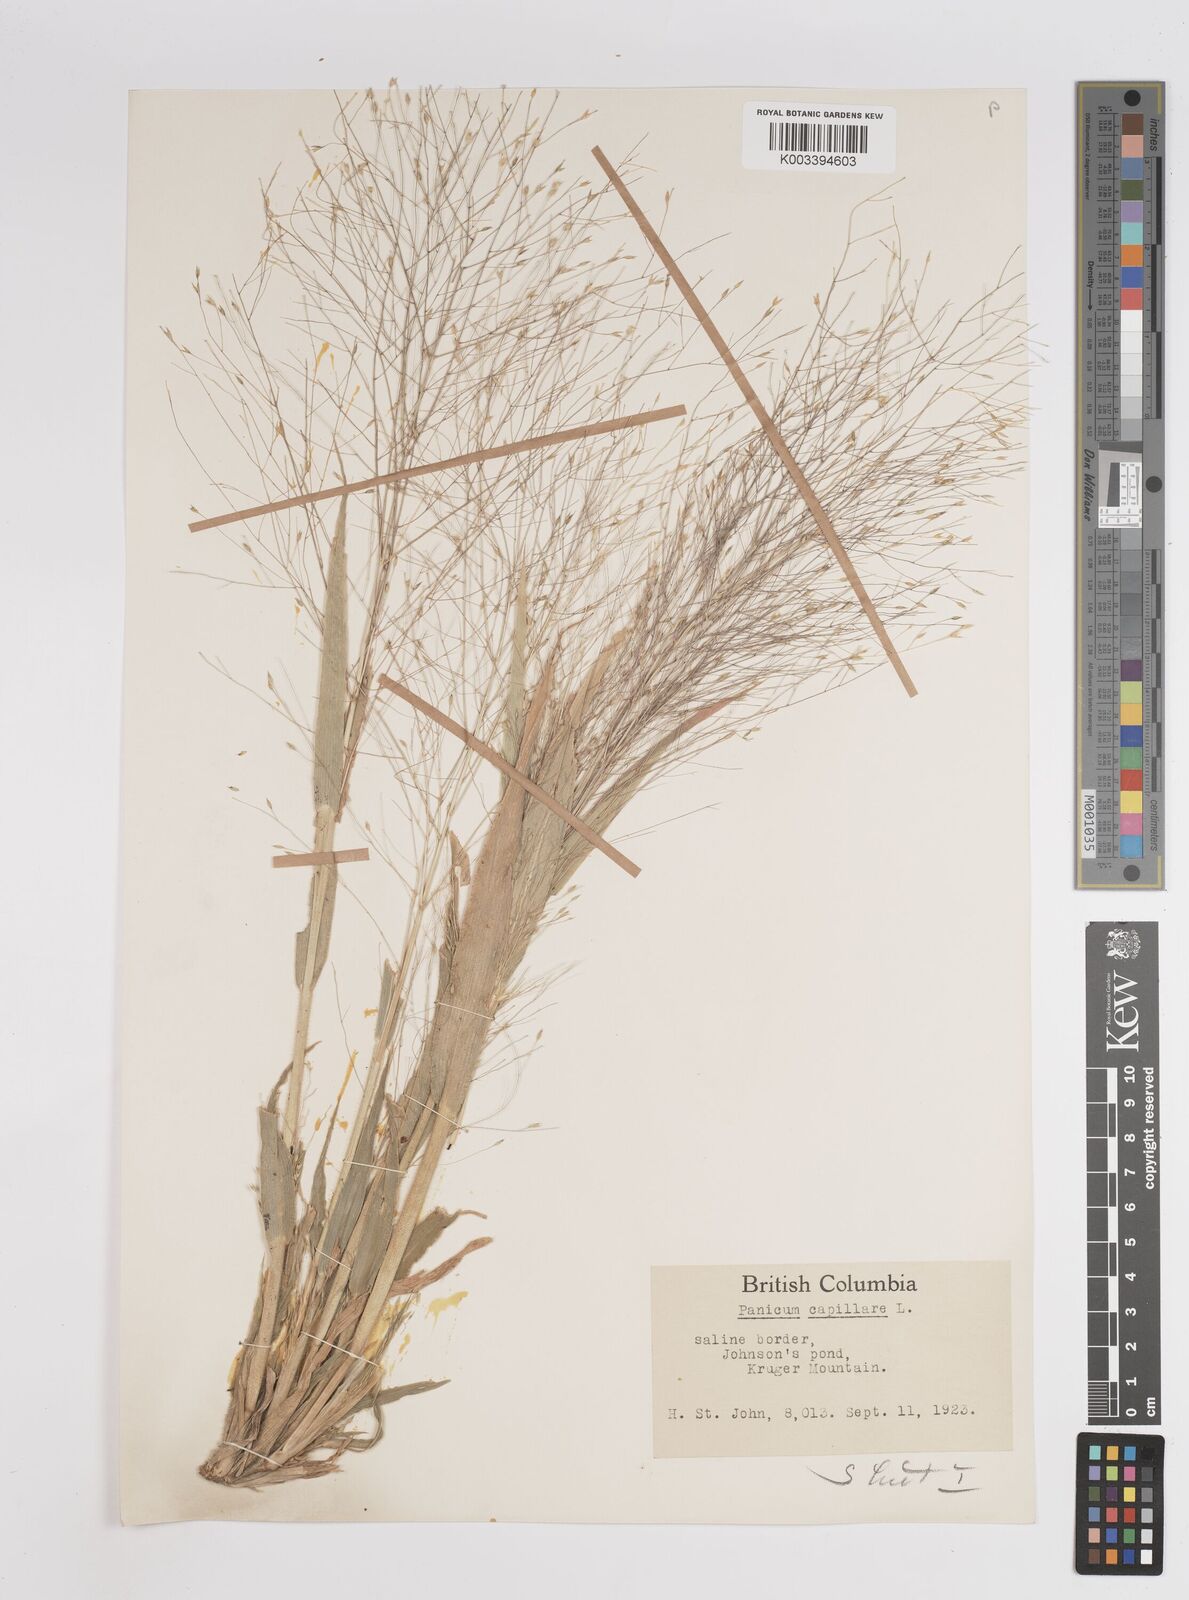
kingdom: Plantae
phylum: Tracheophyta
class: Liliopsida
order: Poales
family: Poaceae
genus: Panicum
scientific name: Panicum capillare
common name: Witch-grass
